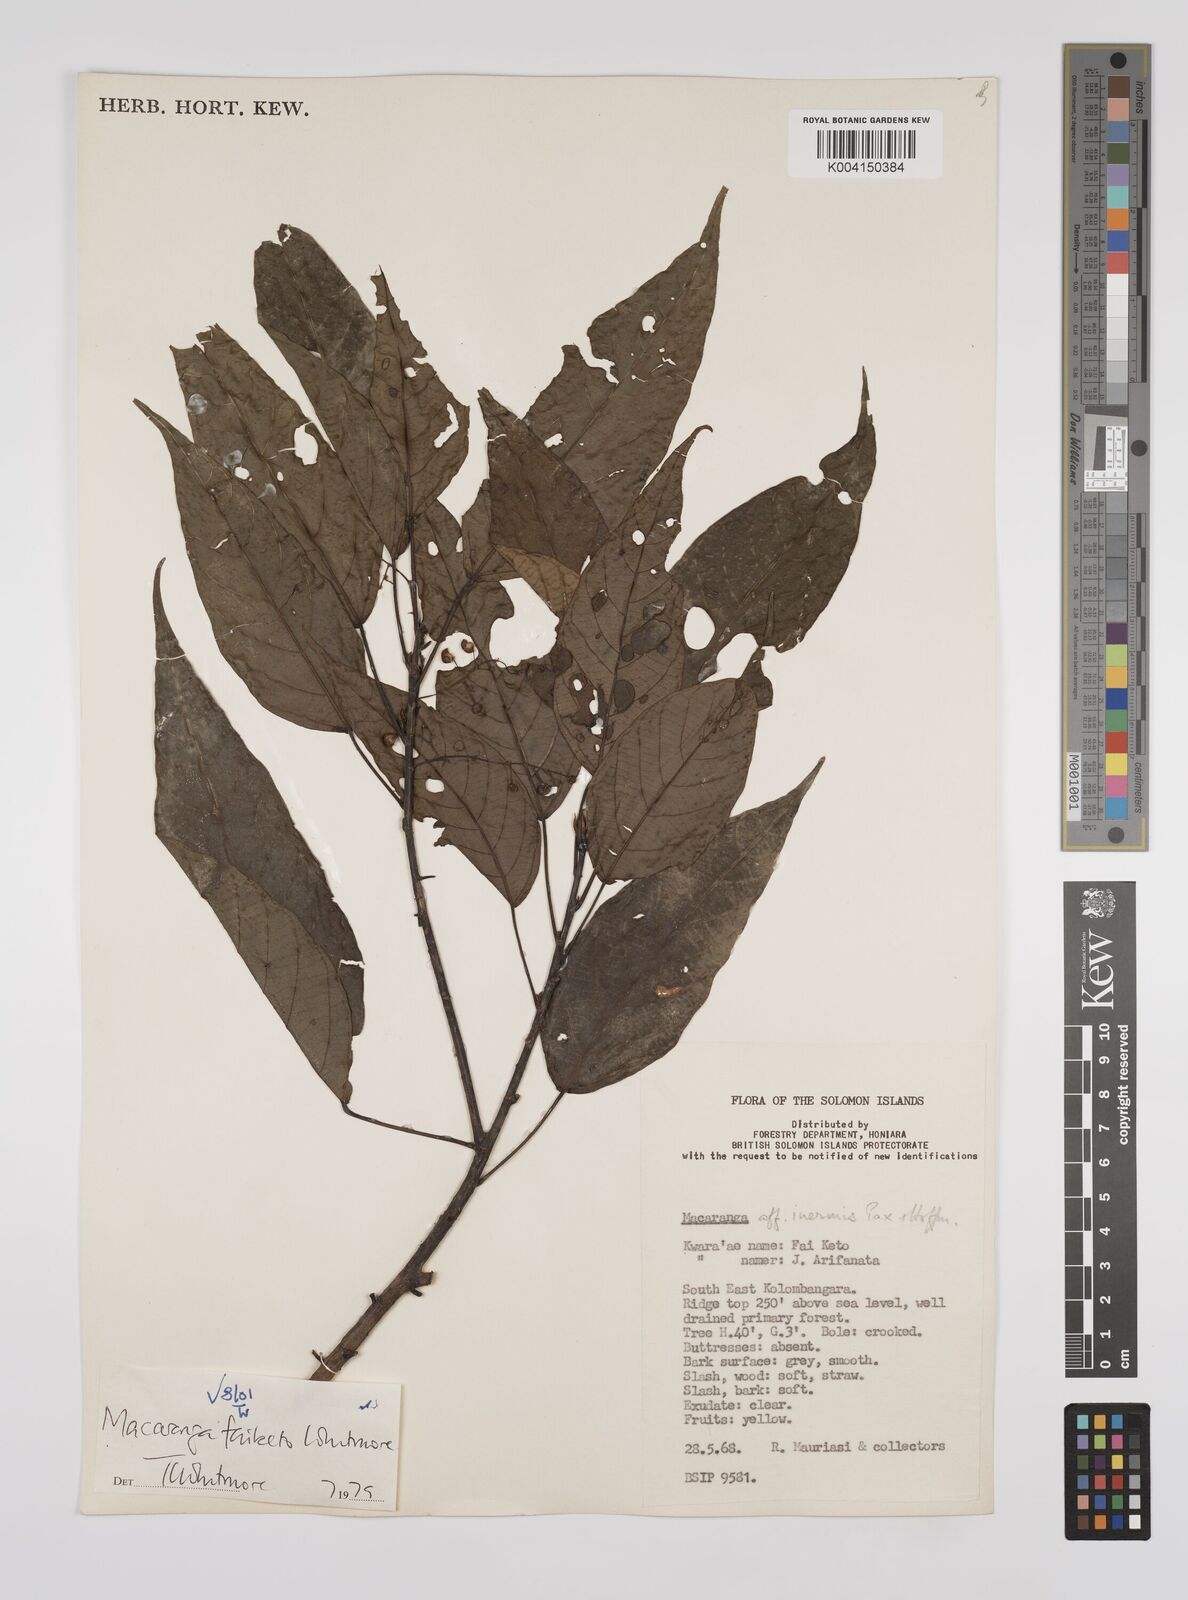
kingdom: Plantae
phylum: Tracheophyta
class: Magnoliopsida
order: Malpighiales
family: Euphorbiaceae
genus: Macaranga
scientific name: Macaranga faiketo
